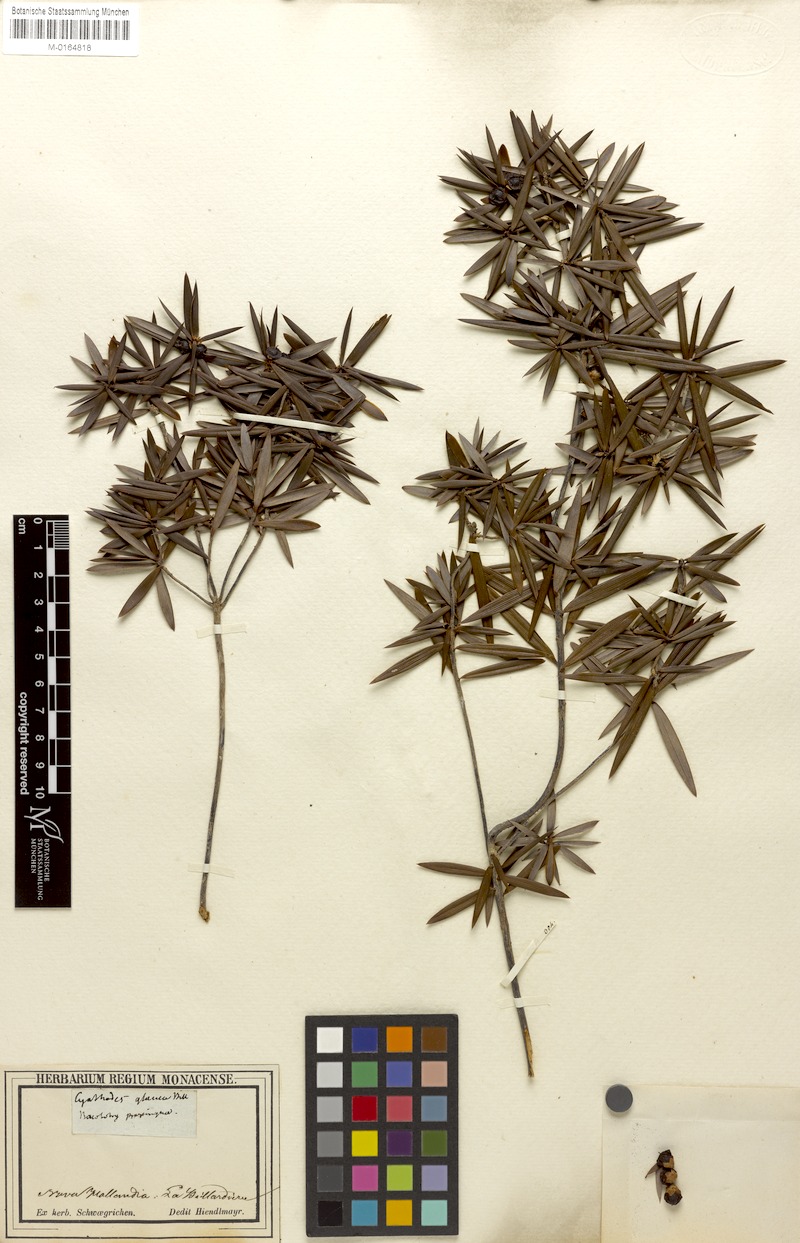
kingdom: Plantae
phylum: Tracheophyta
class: Magnoliopsida
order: Ericales
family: Ericaceae
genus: Cyathodes
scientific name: Cyathodes glauca
